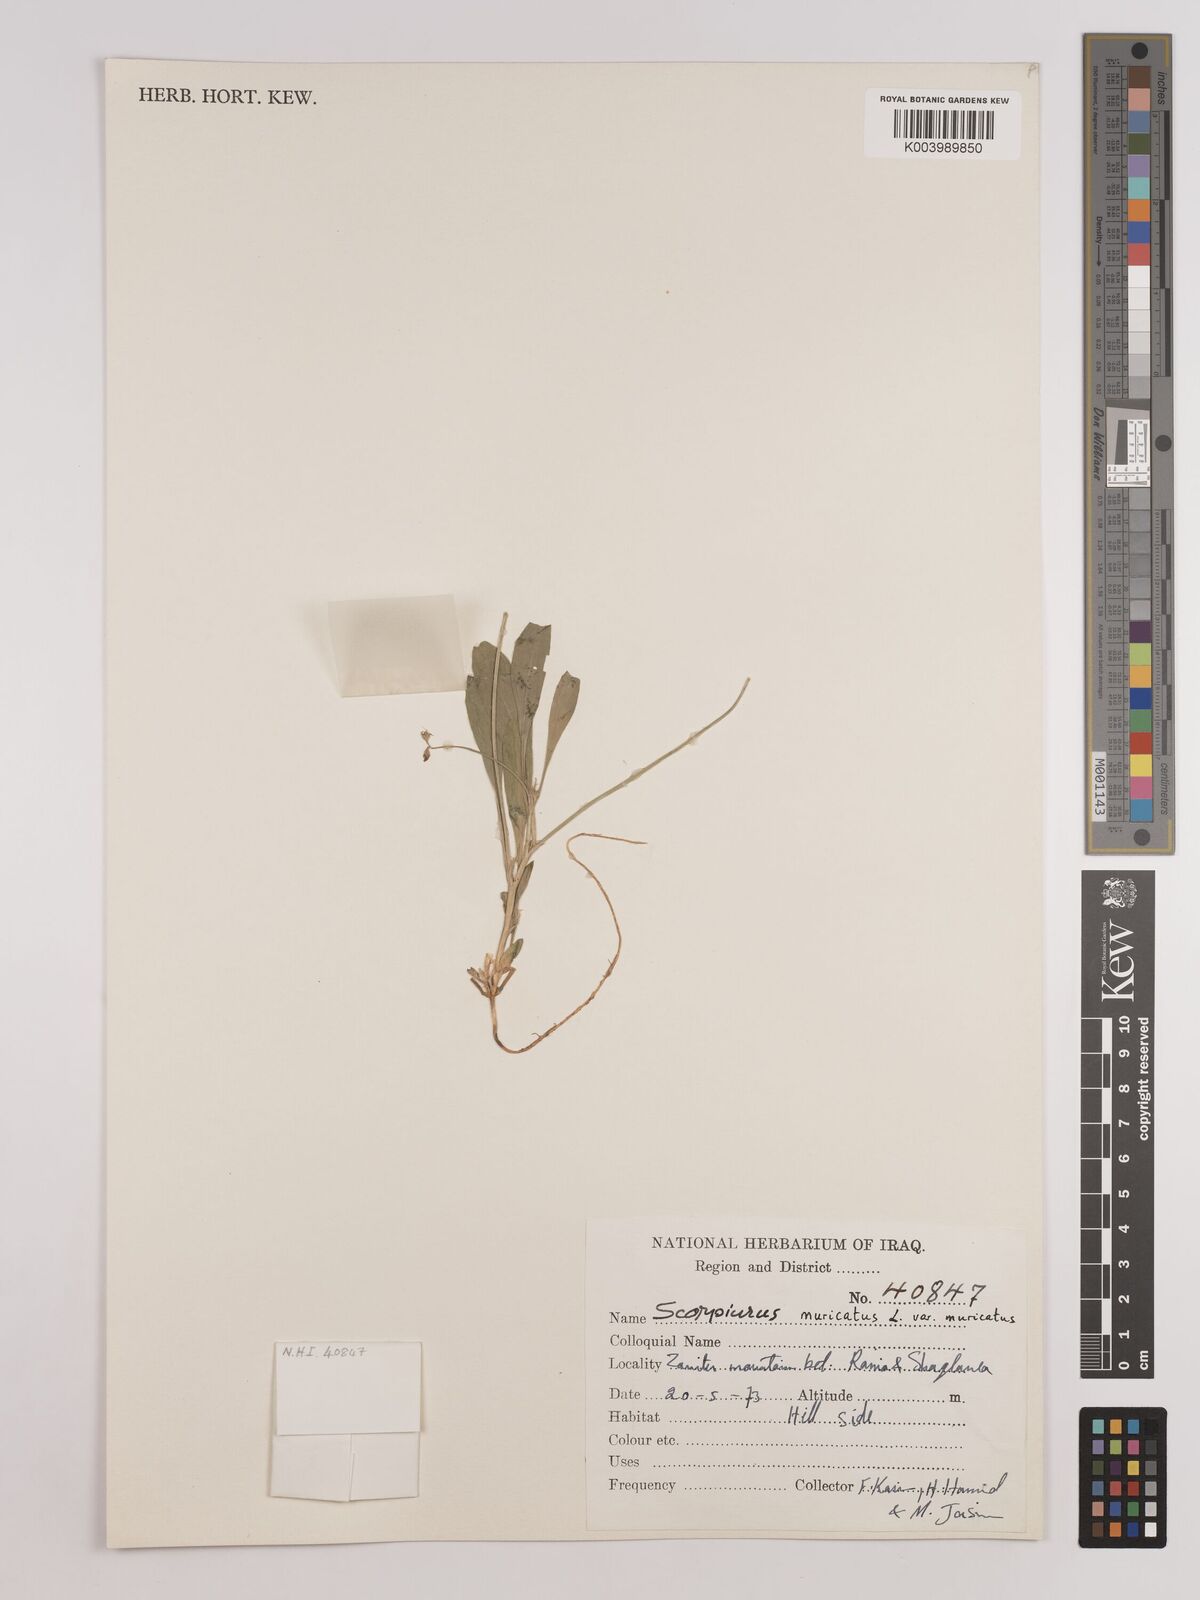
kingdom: Plantae
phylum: Tracheophyta
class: Magnoliopsida
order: Fabales
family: Fabaceae
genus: Scorpiurus
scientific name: Scorpiurus muricatus
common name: Caterpillar-plant
